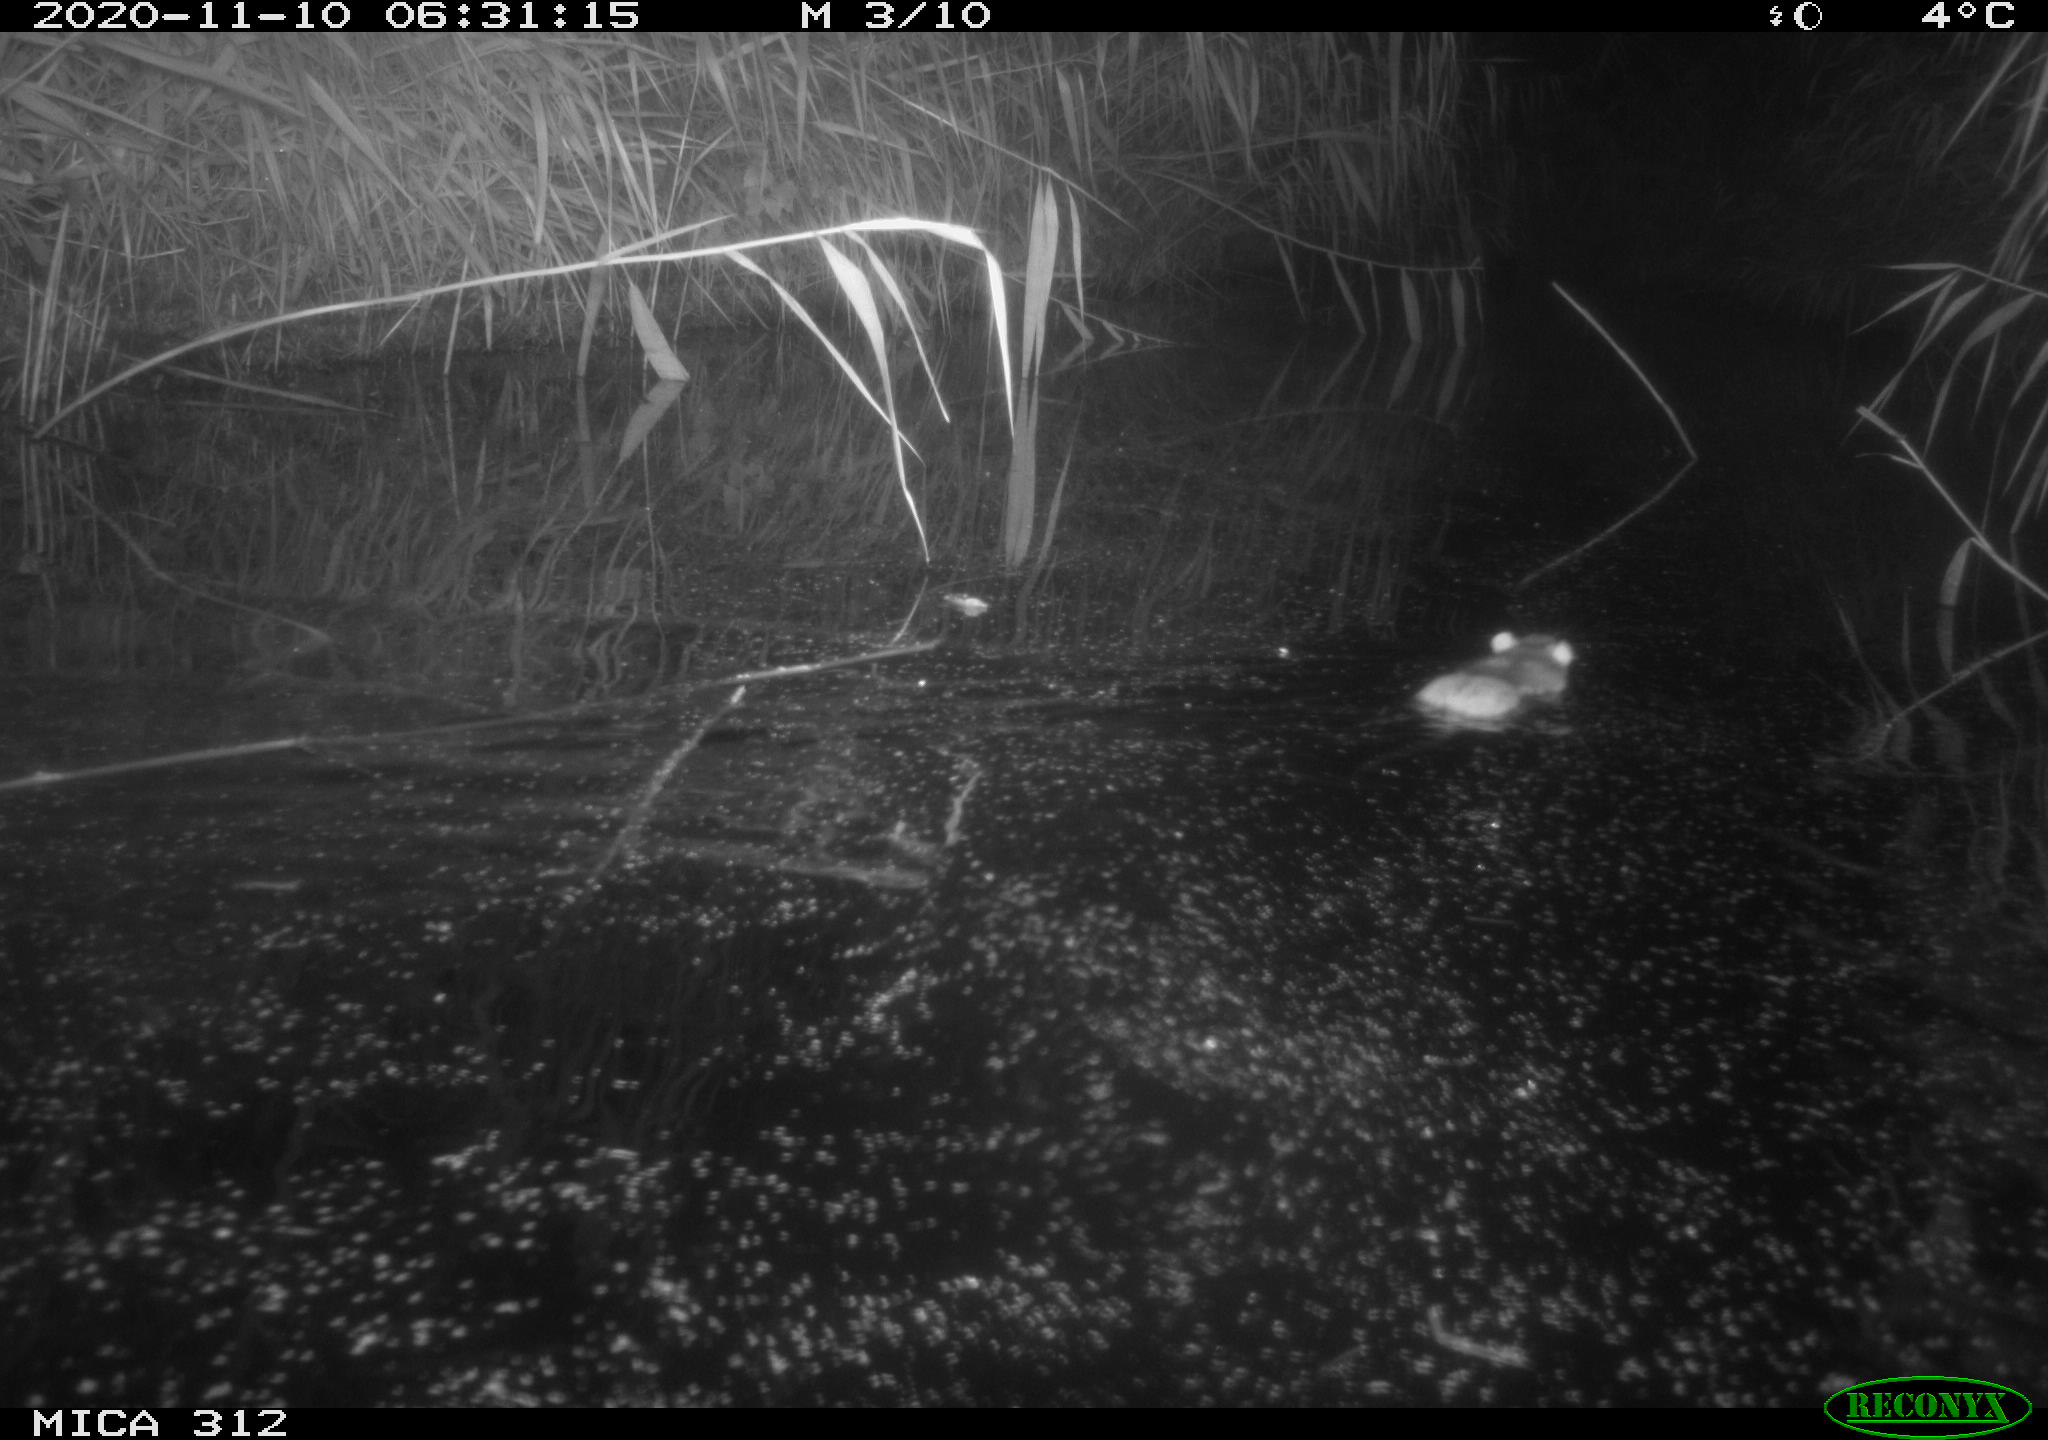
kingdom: Animalia
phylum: Chordata
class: Mammalia
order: Rodentia
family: Muridae
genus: Rattus
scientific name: Rattus norvegicus
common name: Brown rat
